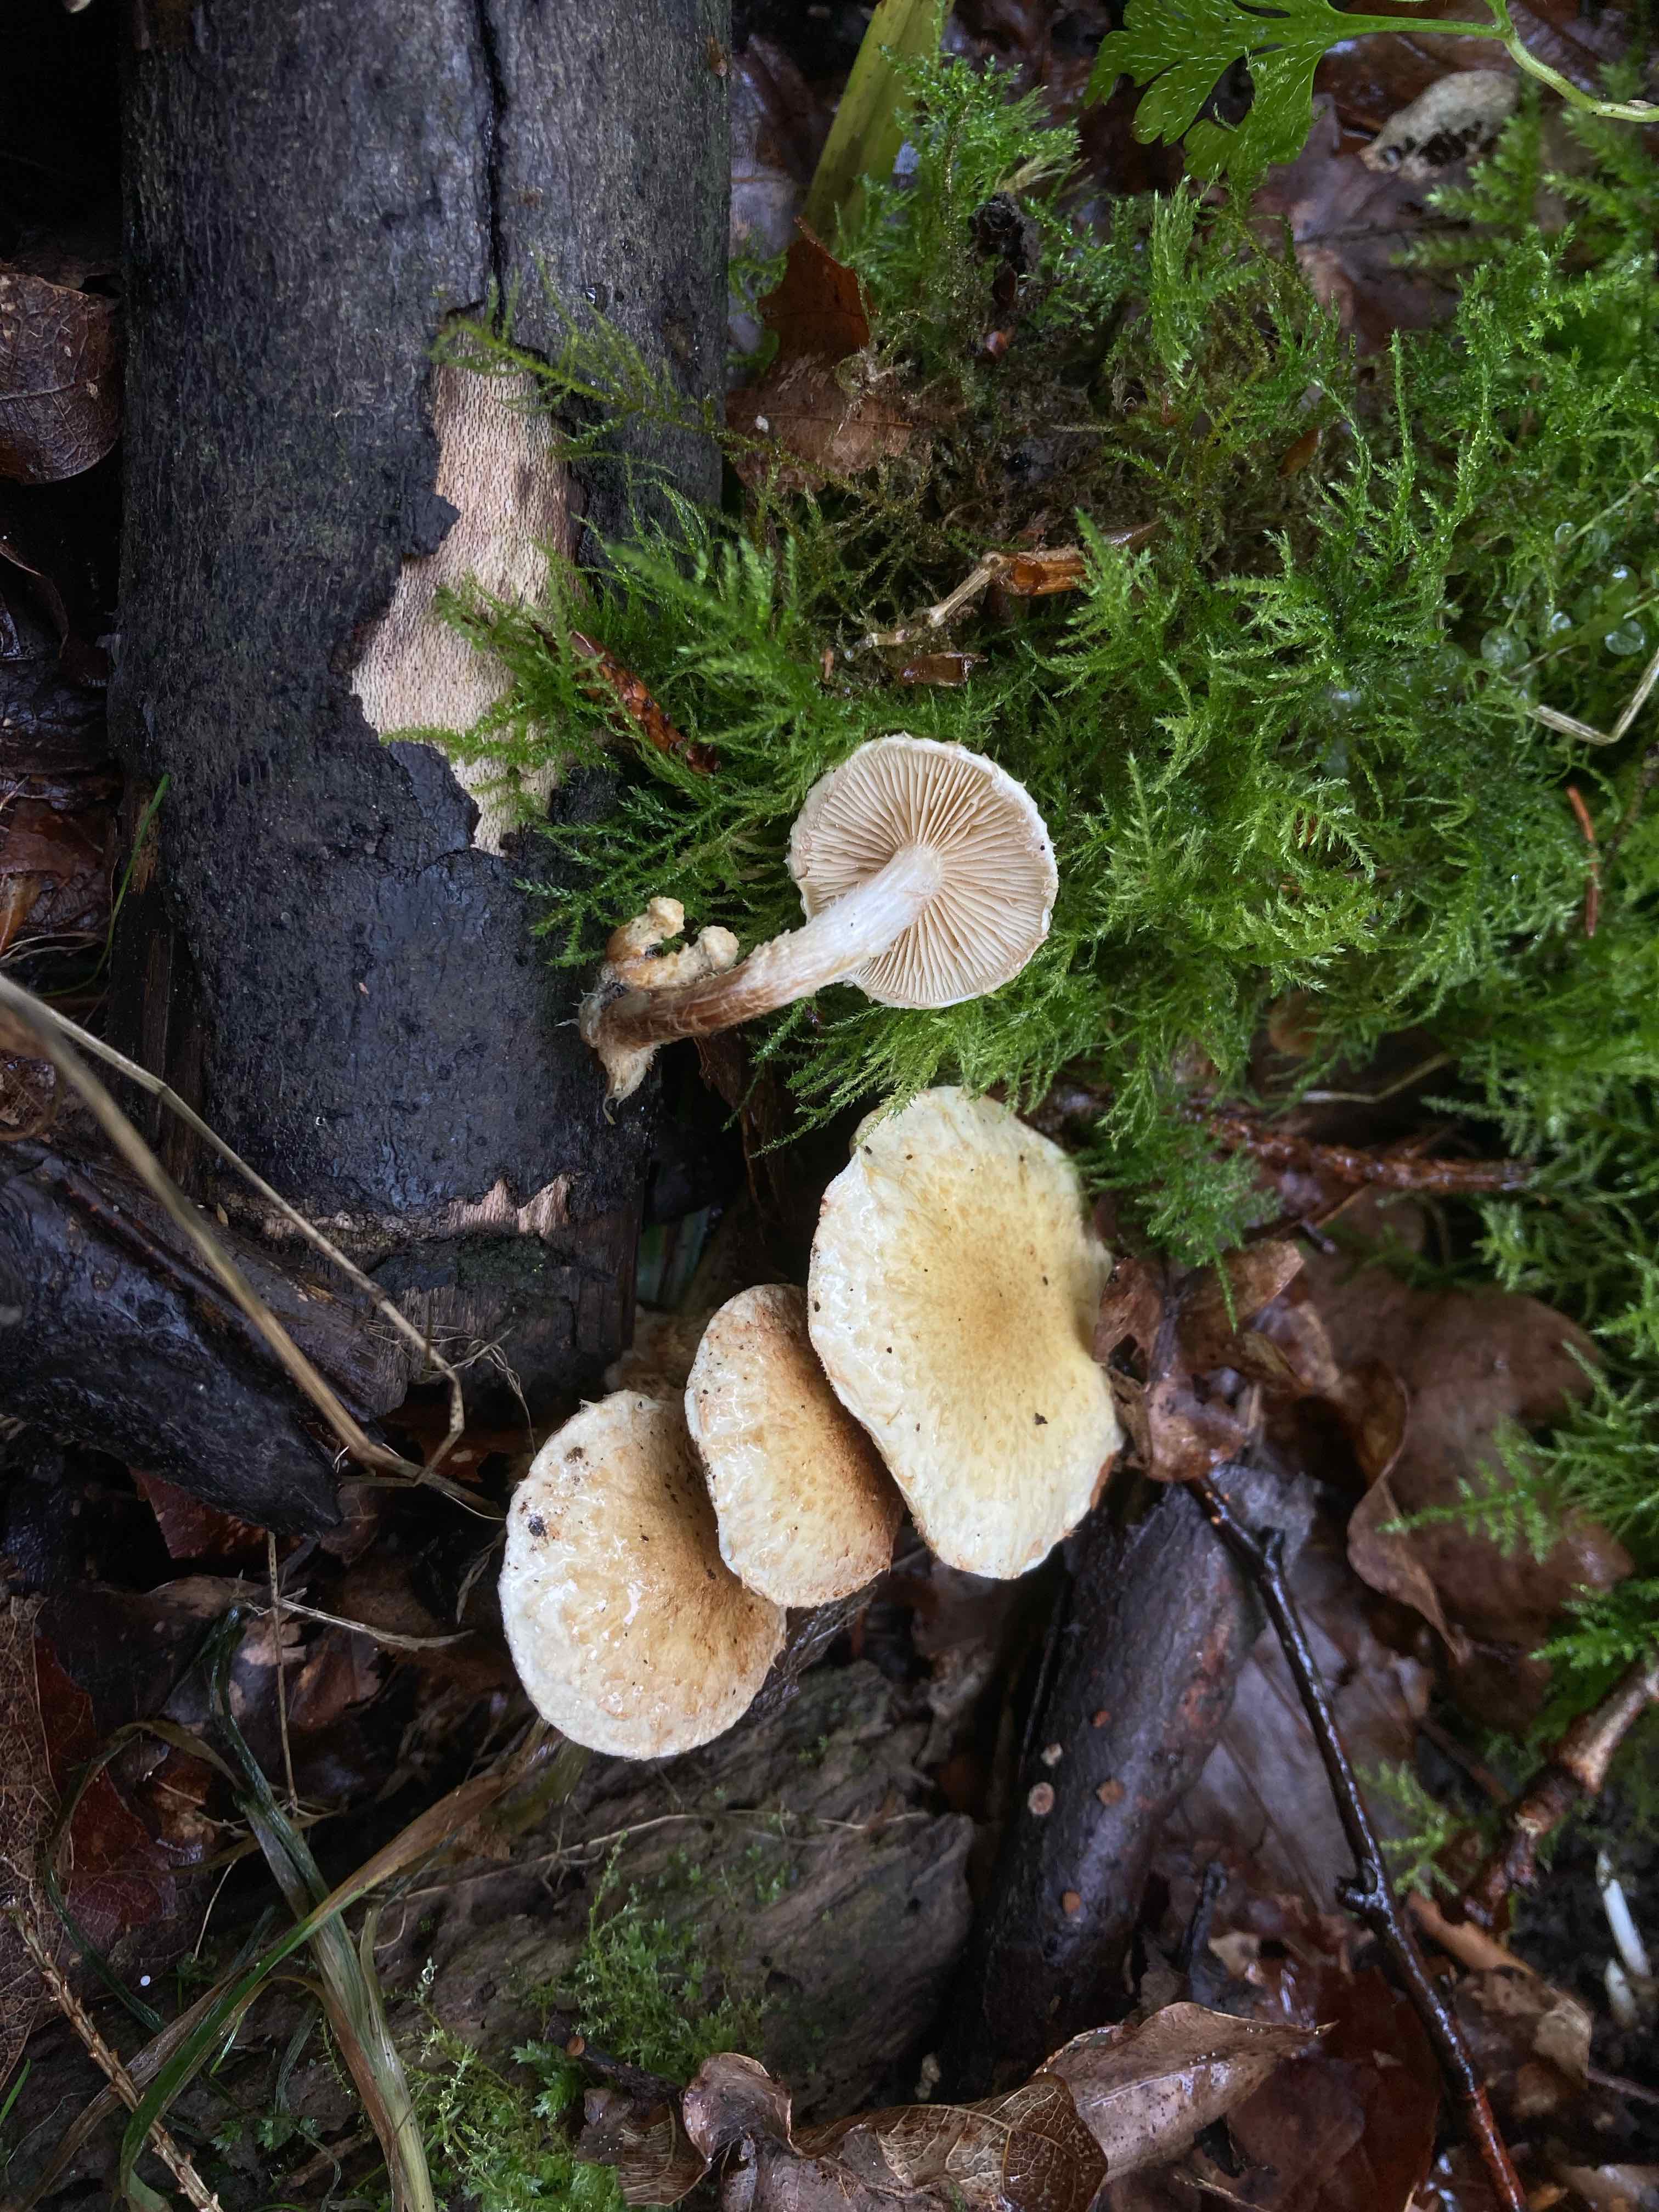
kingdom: Fungi
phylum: Basidiomycota
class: Agaricomycetes
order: Agaricales
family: Strophariaceae
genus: Pholiota
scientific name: Pholiota gummosa
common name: grøngul skælhat
